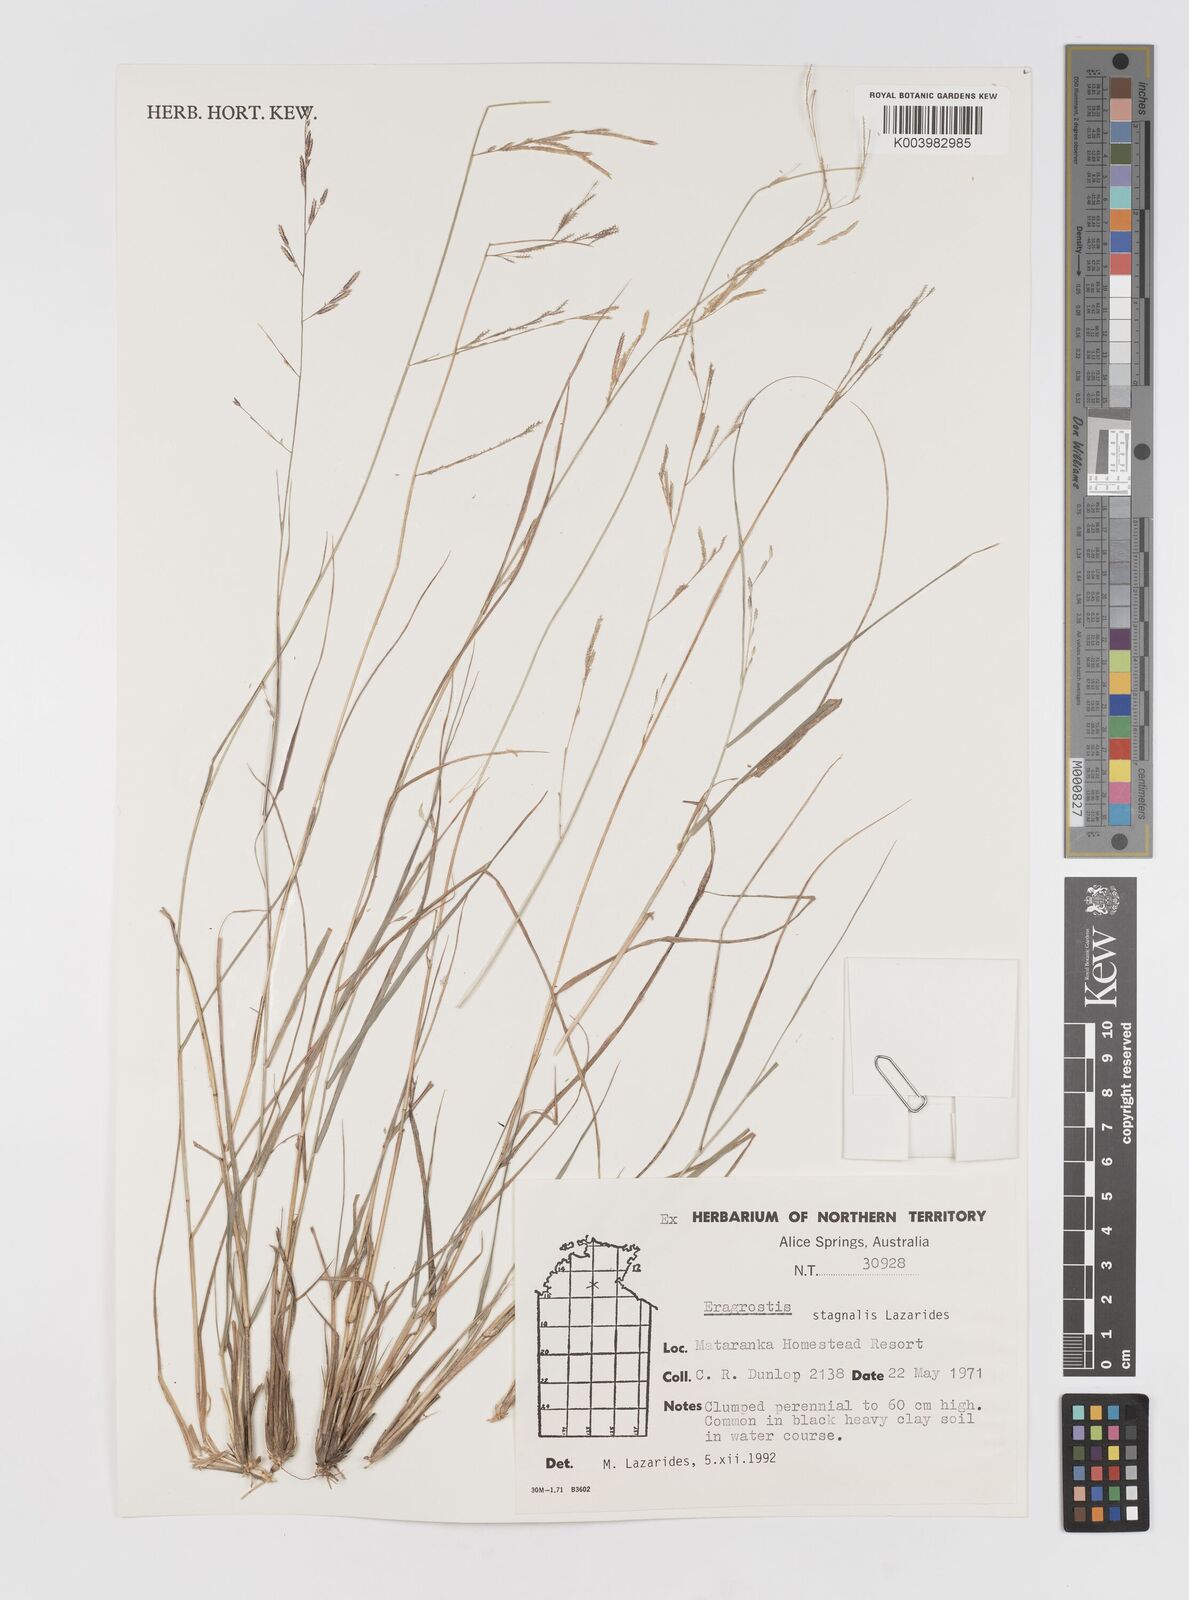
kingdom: Plantae
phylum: Tracheophyta
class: Liliopsida
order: Poales
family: Poaceae
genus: Eragrostis
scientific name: Eragrostis stagnalis
